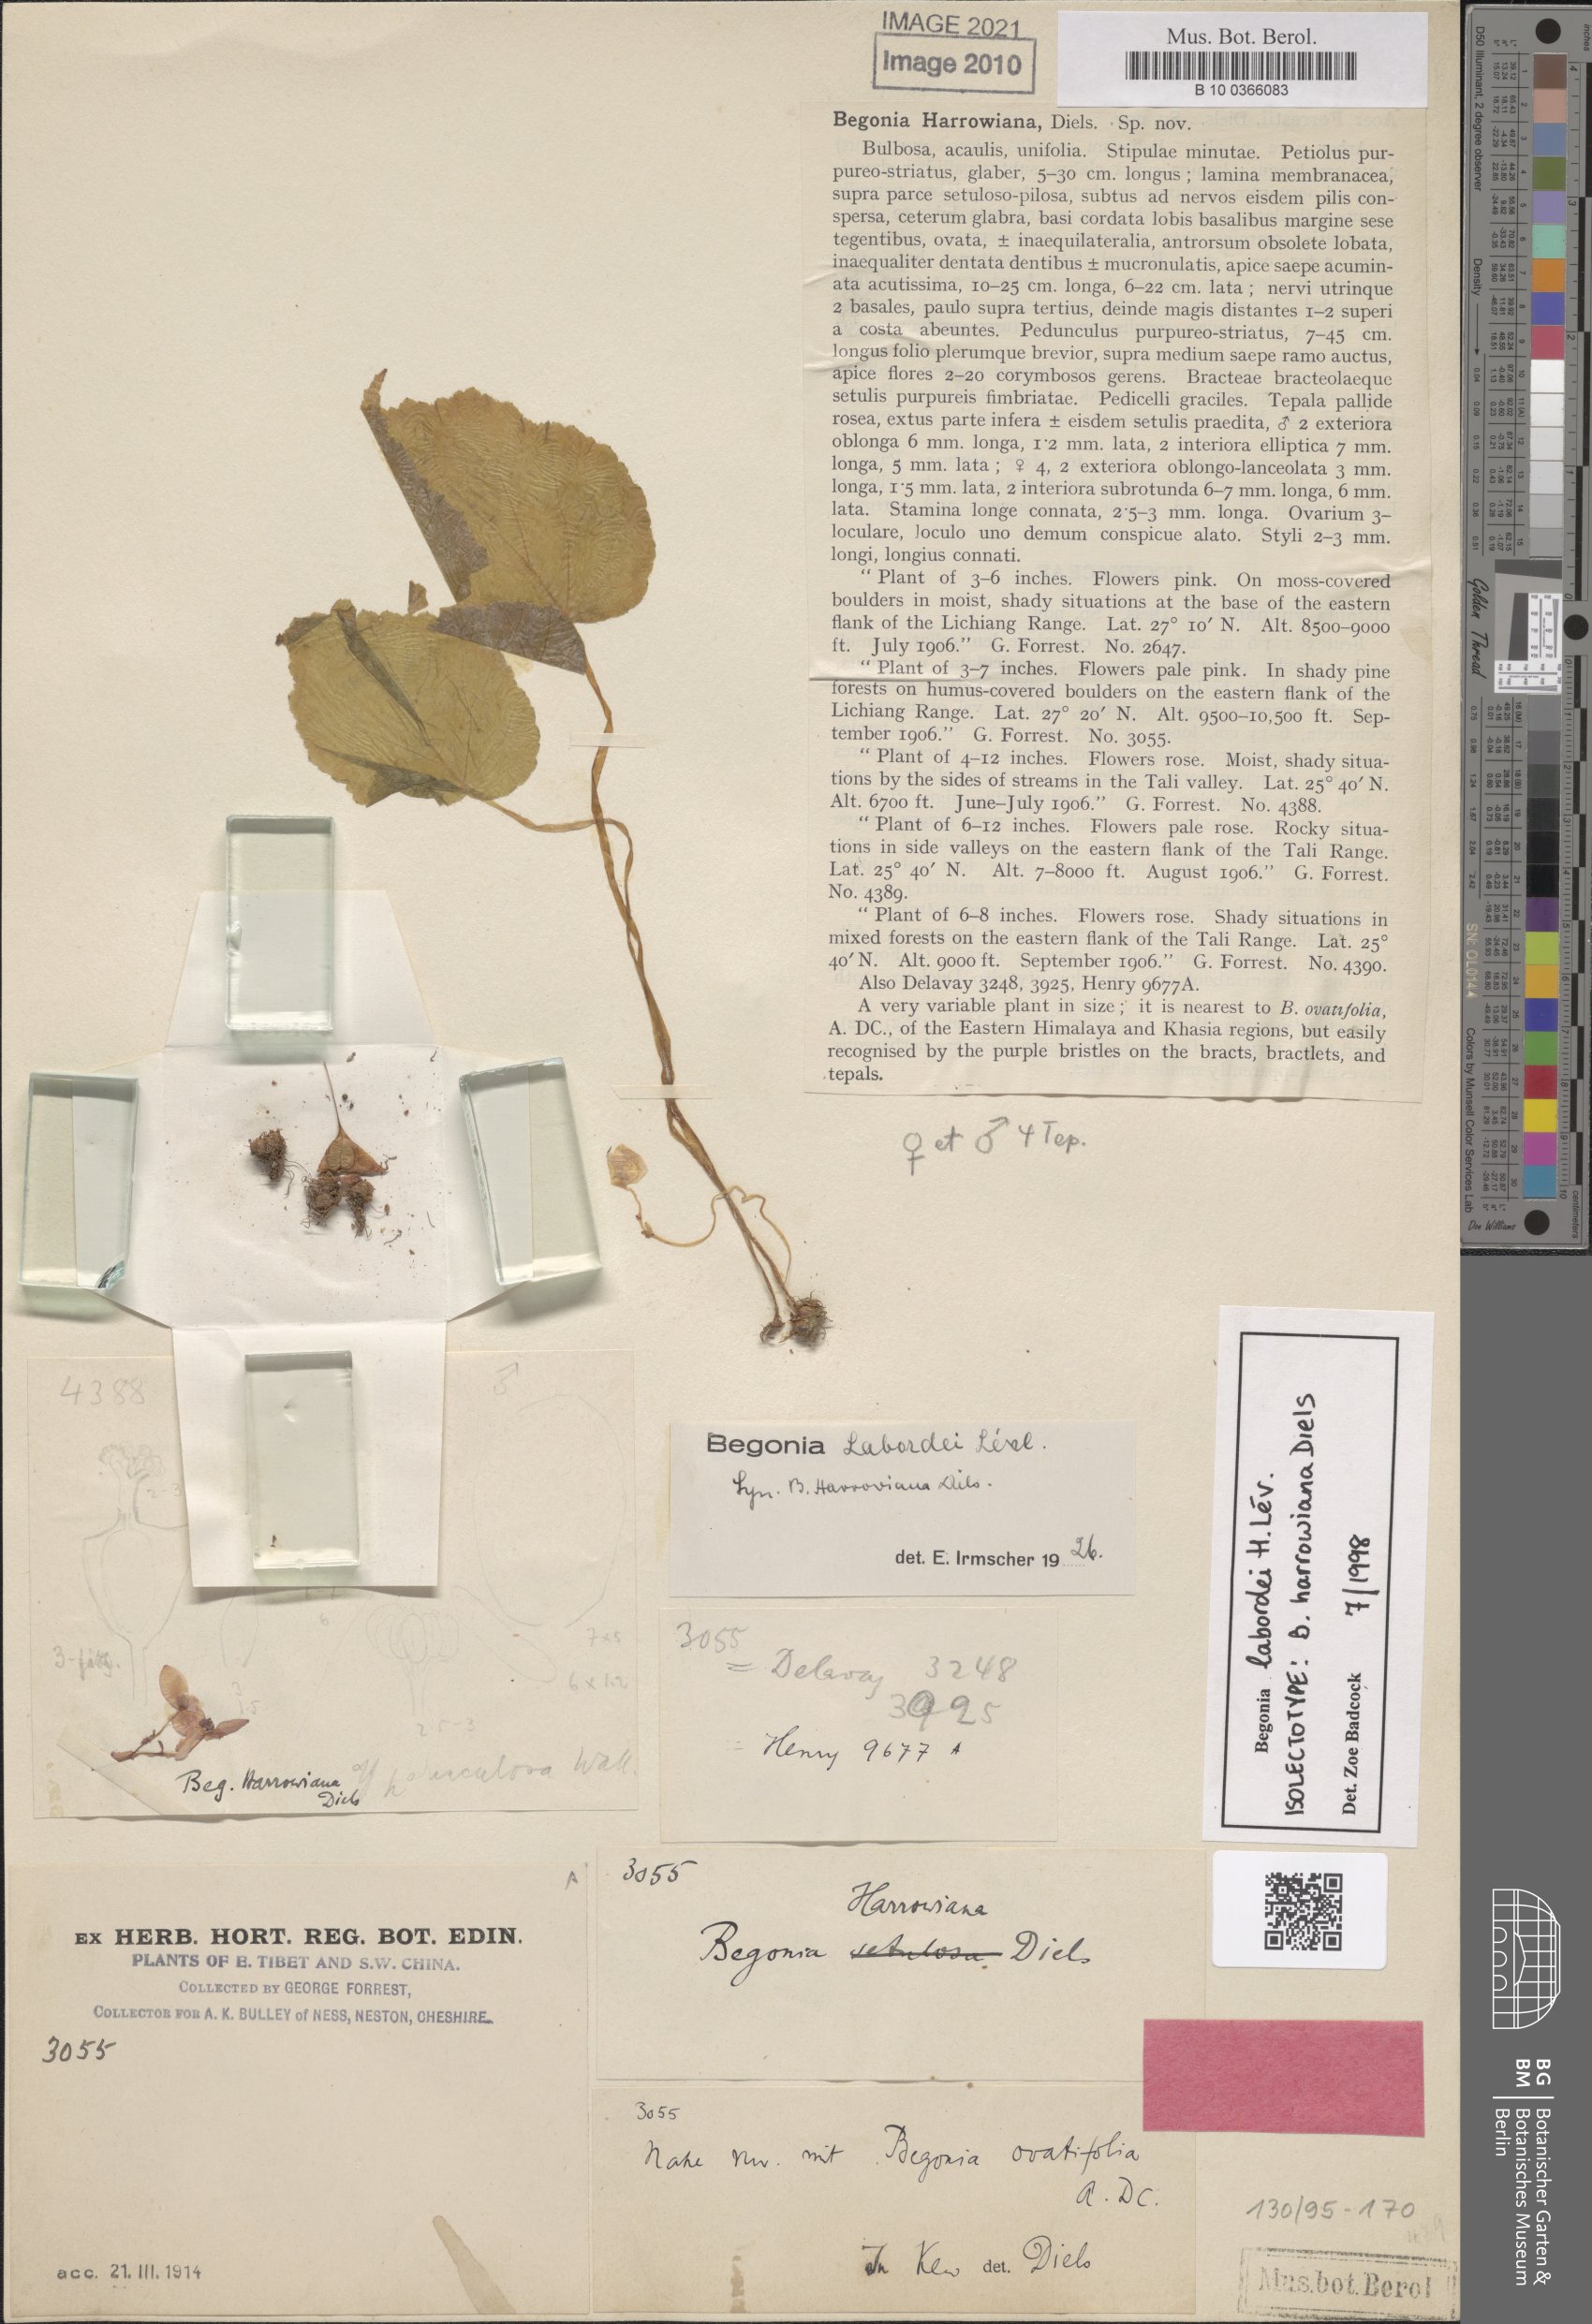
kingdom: Plantae
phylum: Tracheophyta
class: Magnoliopsida
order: Cucurbitales
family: Begoniaceae
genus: Begonia
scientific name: Begonia labordei
